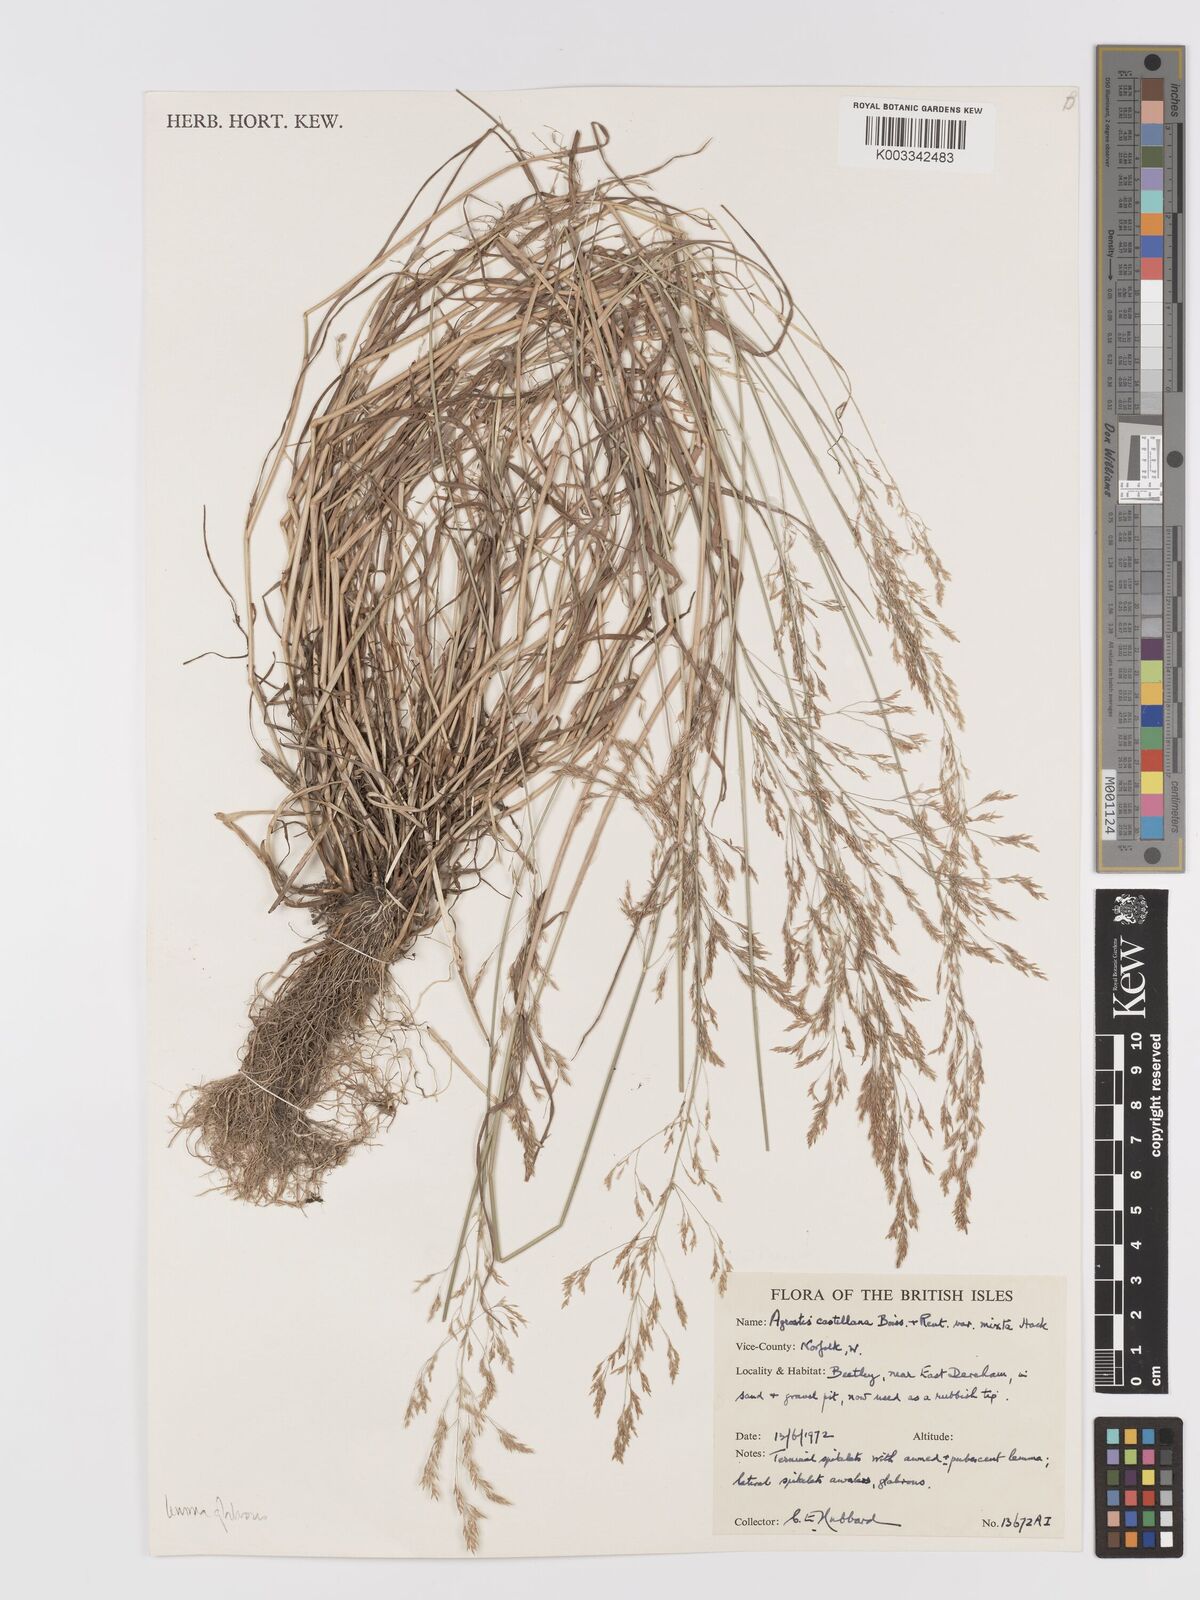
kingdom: Plantae
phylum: Tracheophyta
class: Liliopsida
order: Poales
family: Poaceae
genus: Agrostis
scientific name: Agrostis castellana
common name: Highland bent
